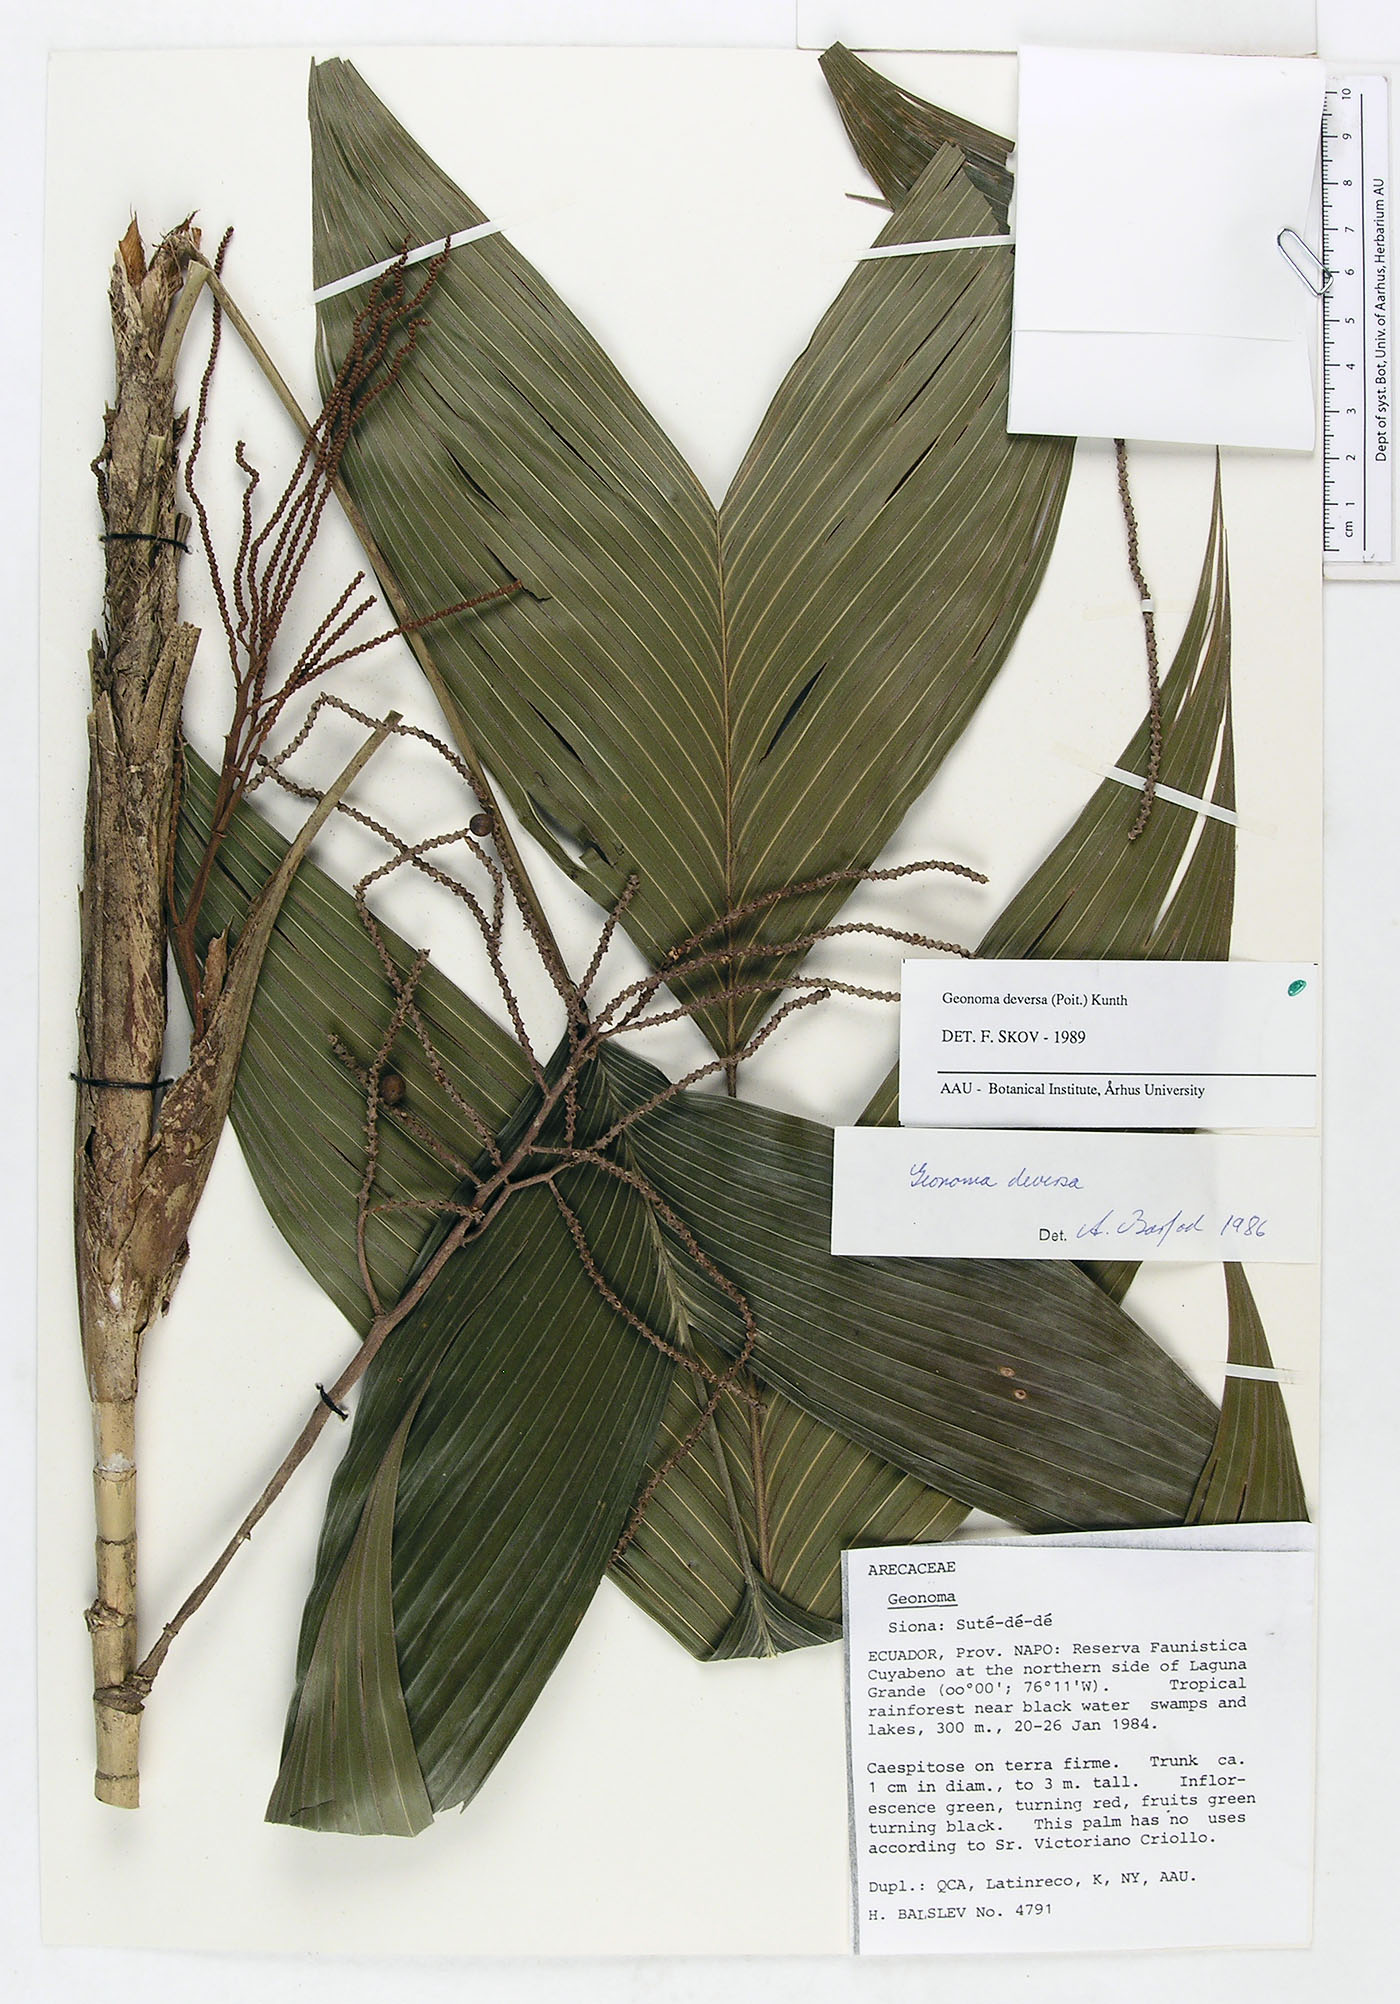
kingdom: Plantae
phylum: Tracheophyta
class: Liliopsida
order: Arecales
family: Arecaceae
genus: Geonoma
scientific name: Geonoma deversa
